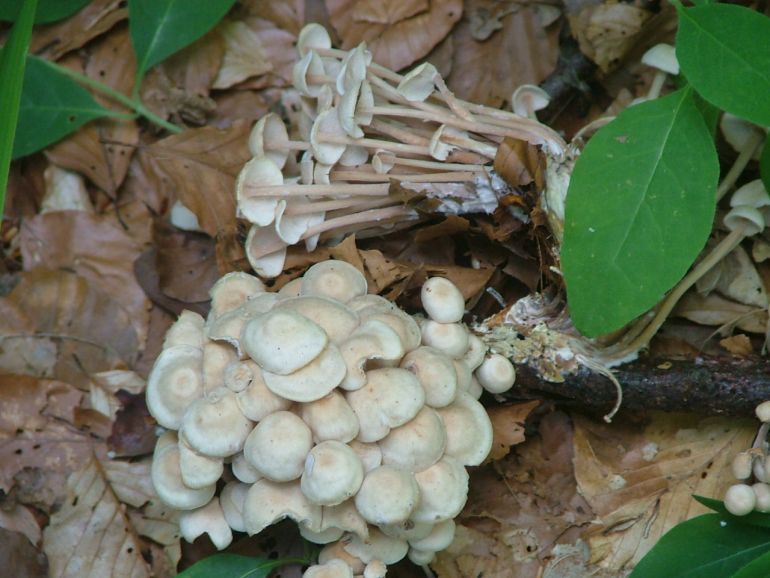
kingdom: Fungi
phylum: Basidiomycota
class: Agaricomycetes
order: Agaricales
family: Omphalotaceae
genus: Collybiopsis
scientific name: Collybiopsis confluens
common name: knippe-fladhat
